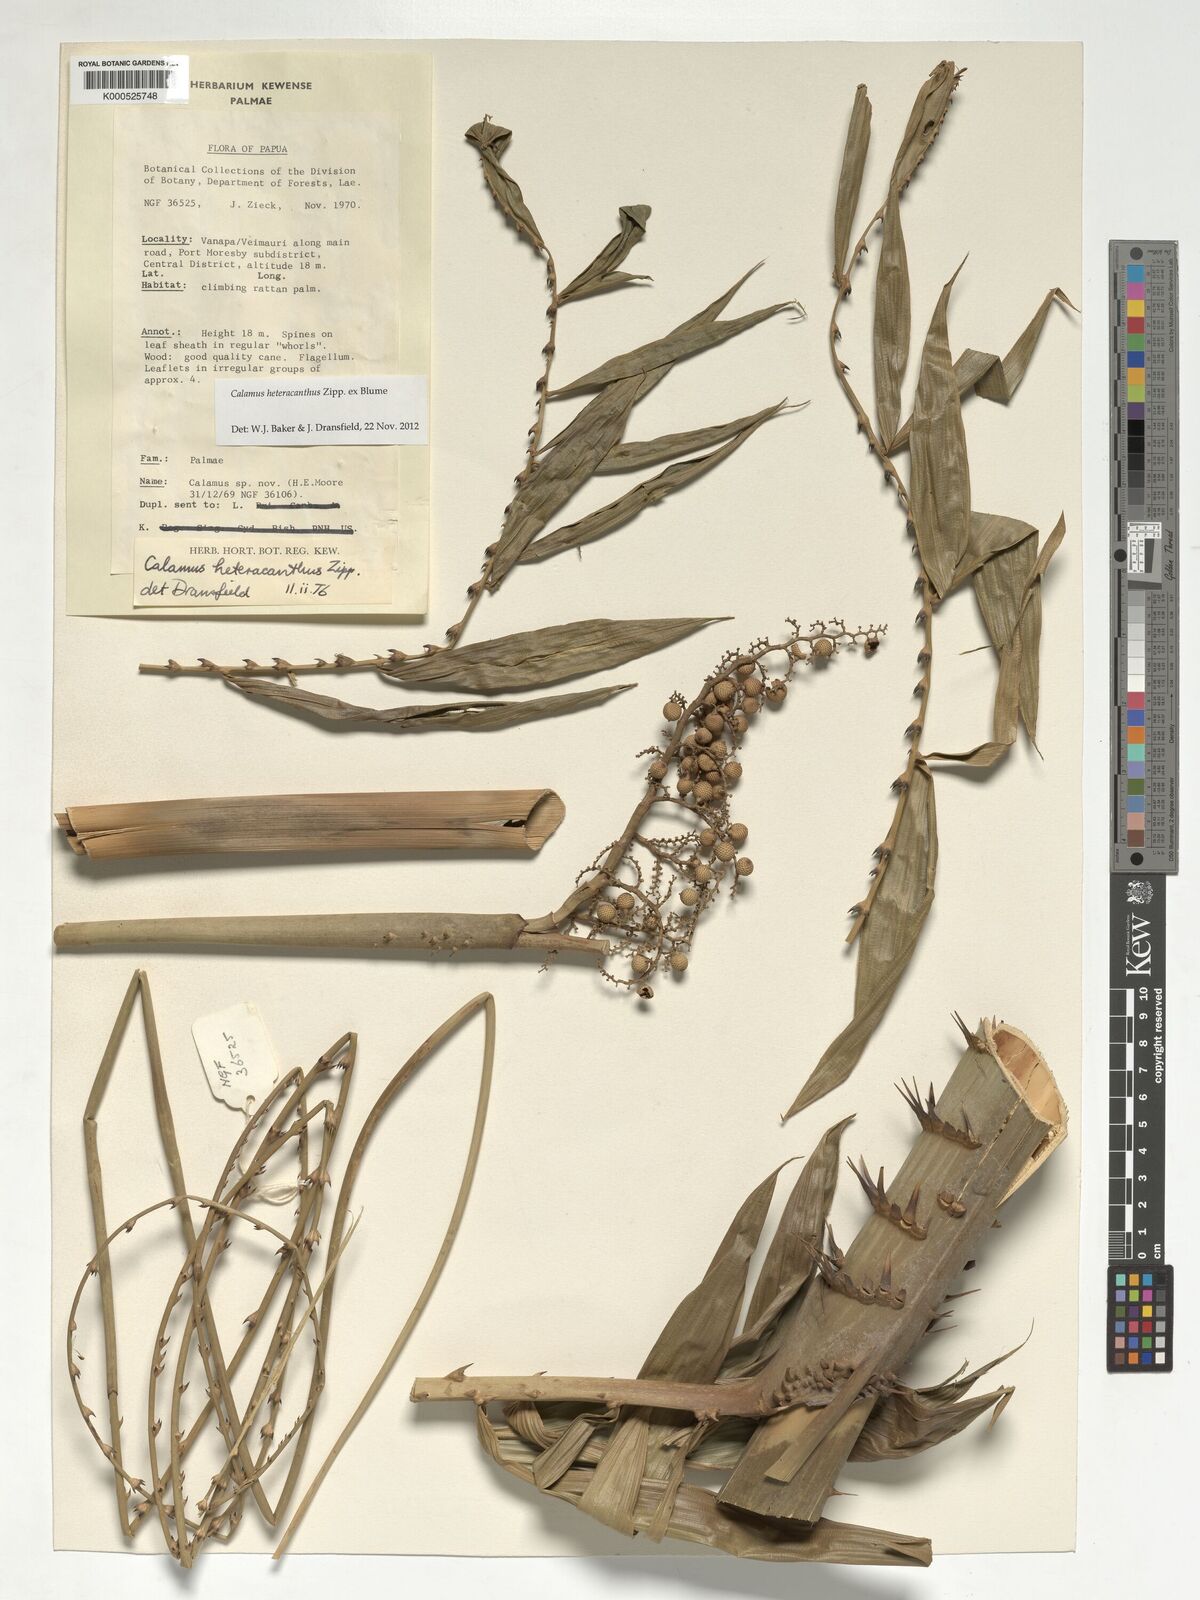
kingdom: Plantae
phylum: Tracheophyta
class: Liliopsida
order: Arecales
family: Arecaceae
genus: Calamus
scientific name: Calamus heteracanthus
